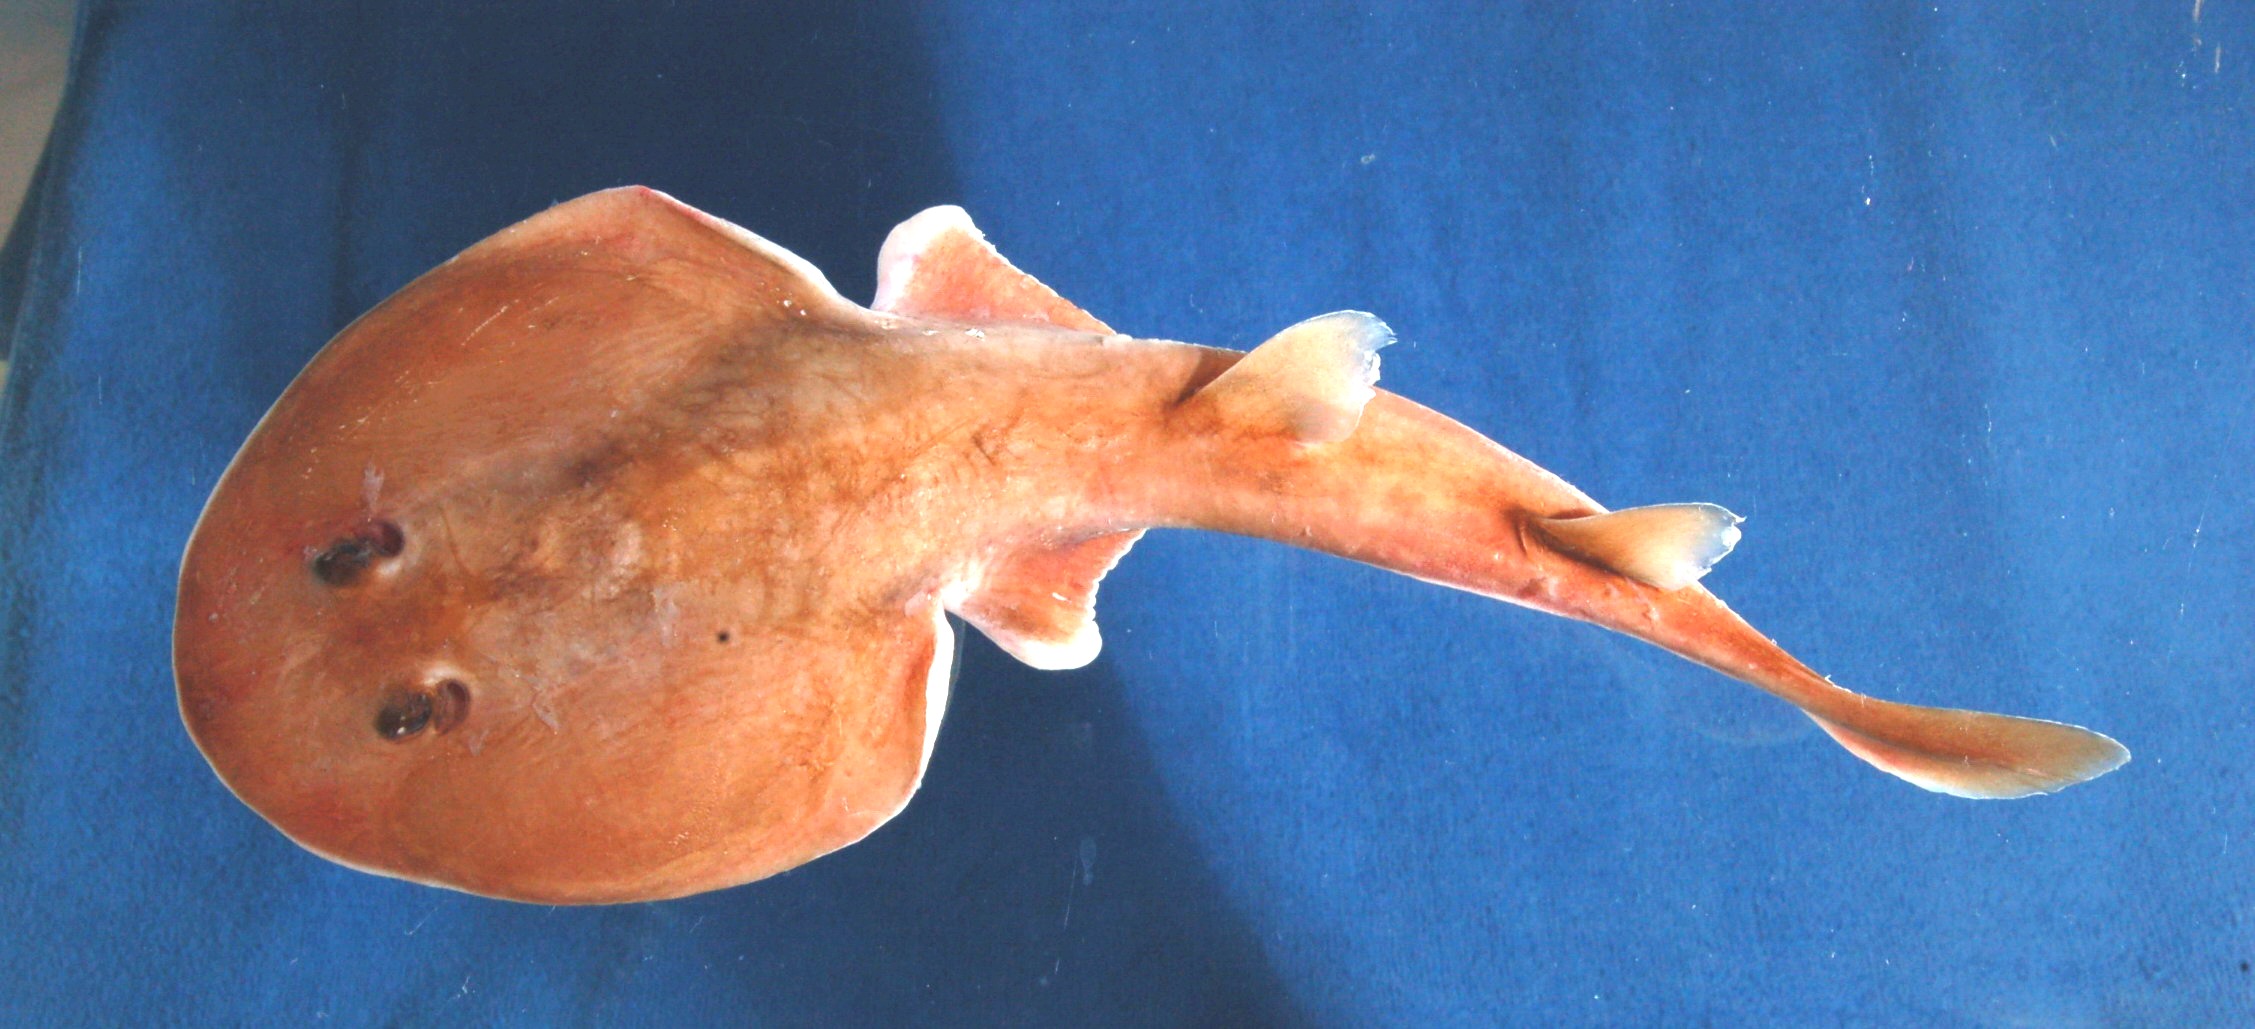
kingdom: Animalia
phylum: Chordata
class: Elasmobranchii
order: Torpediniformes
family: Narcinidae
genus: Narcine
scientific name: Narcine rierai
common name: Slender electric ray
